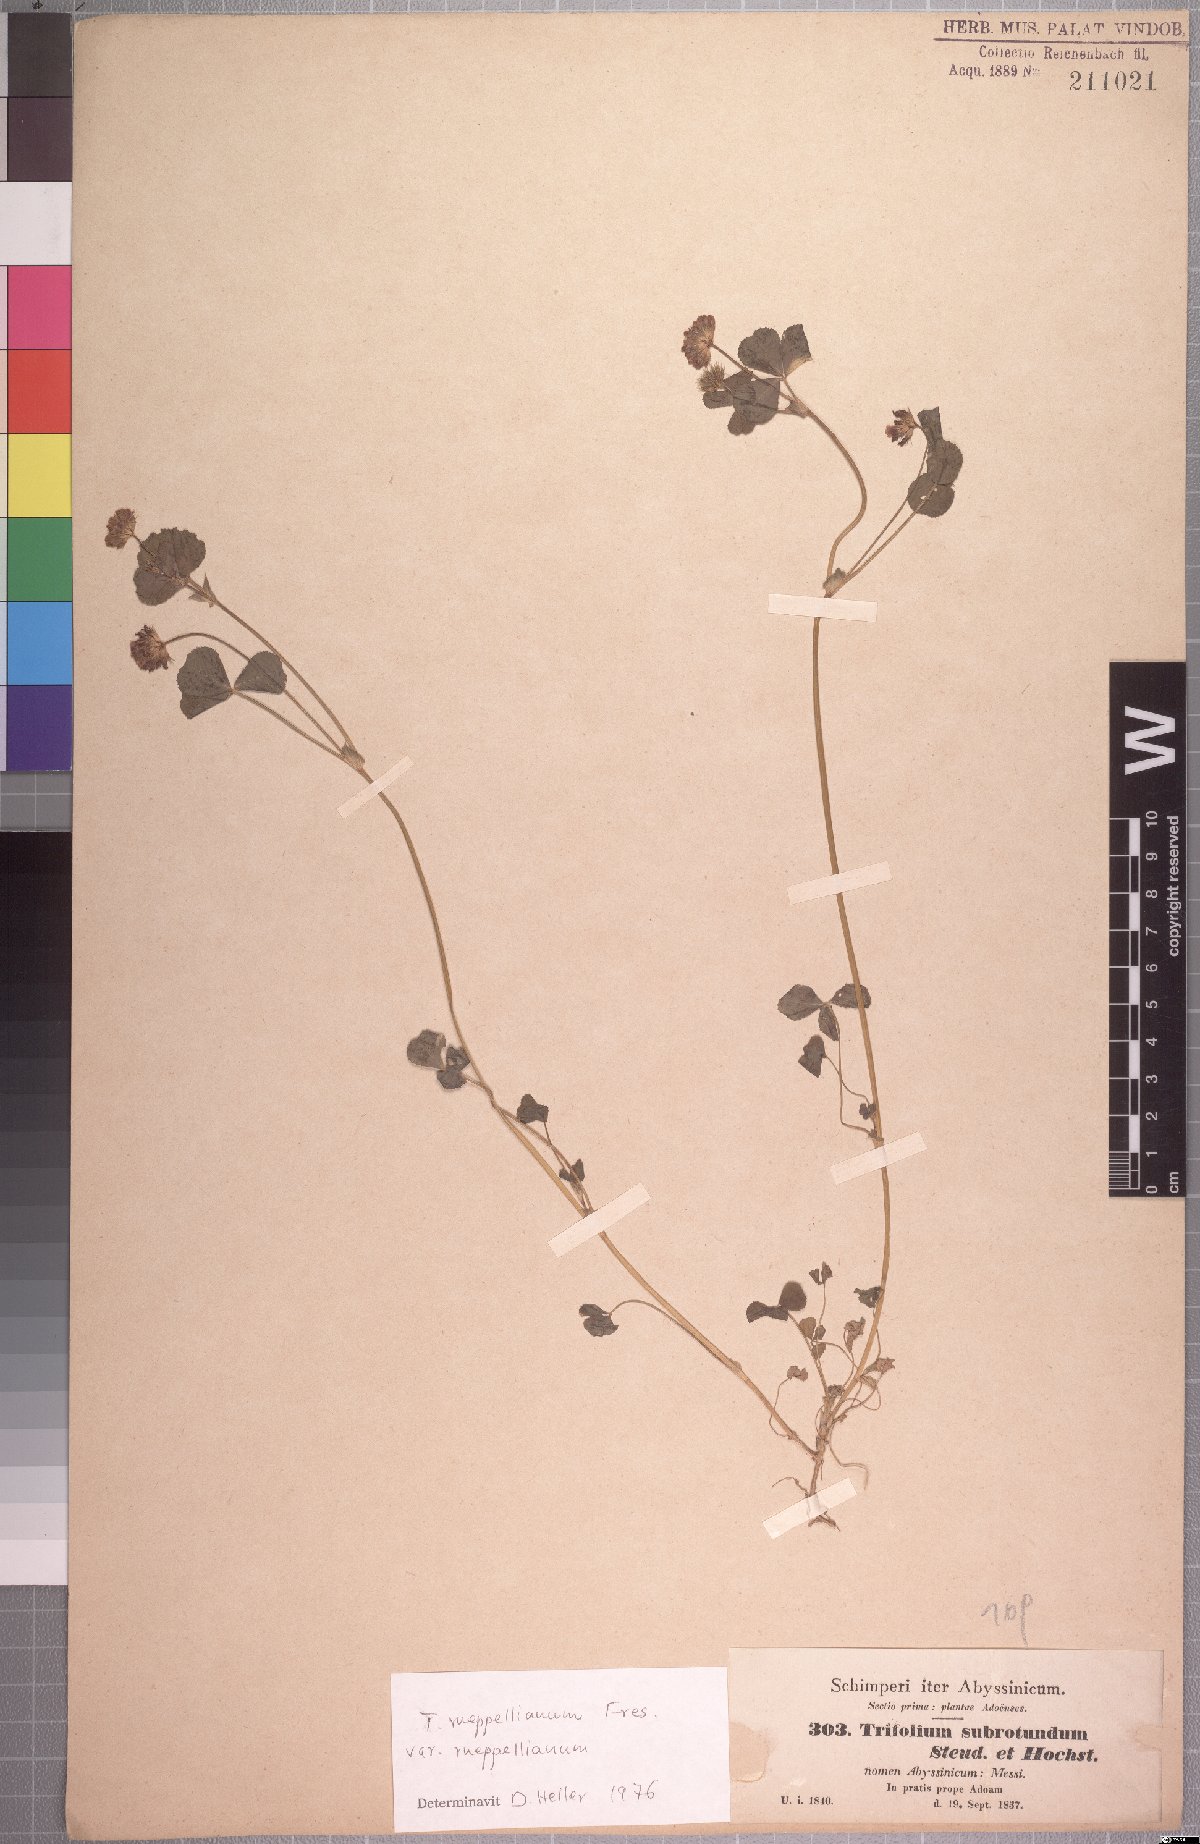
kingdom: Plantae
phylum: Tracheophyta
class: Magnoliopsida
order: Fabales
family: Fabaceae
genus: Trifolium
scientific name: Trifolium rueppellianum
